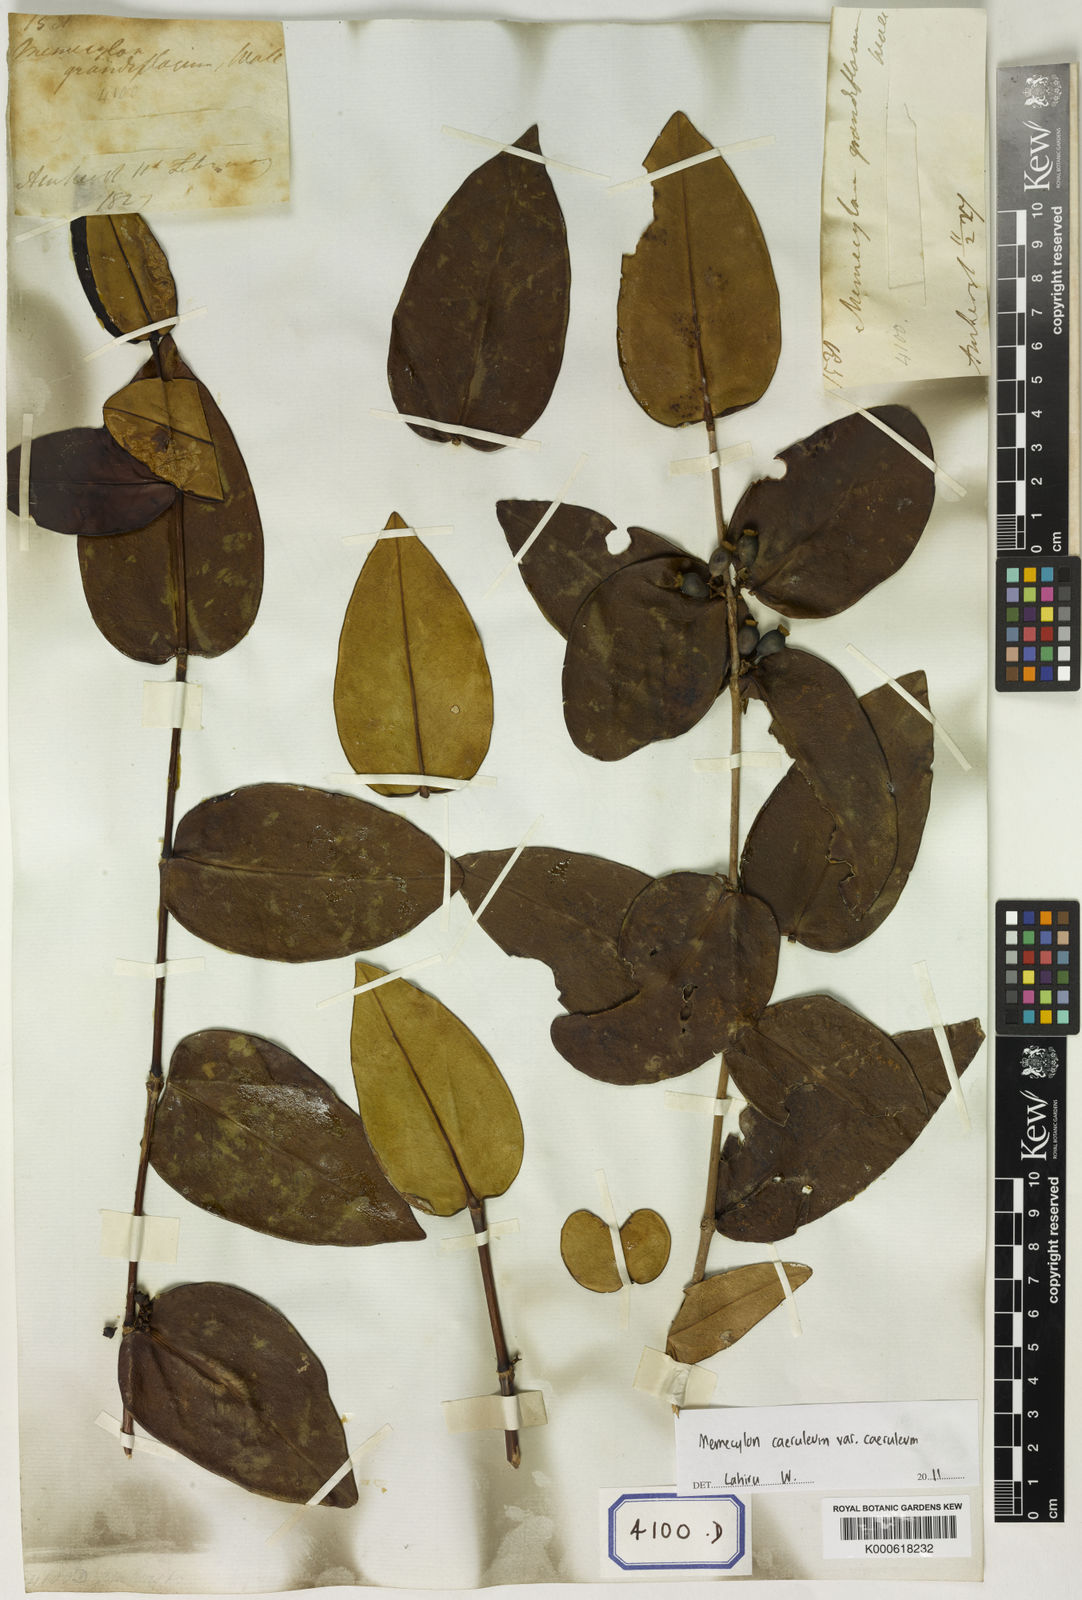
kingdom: Plantae
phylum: Tracheophyta
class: Magnoliopsida
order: Myrtales
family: Melastomataceae
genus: Memecylon
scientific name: Memecylon caeruleum
